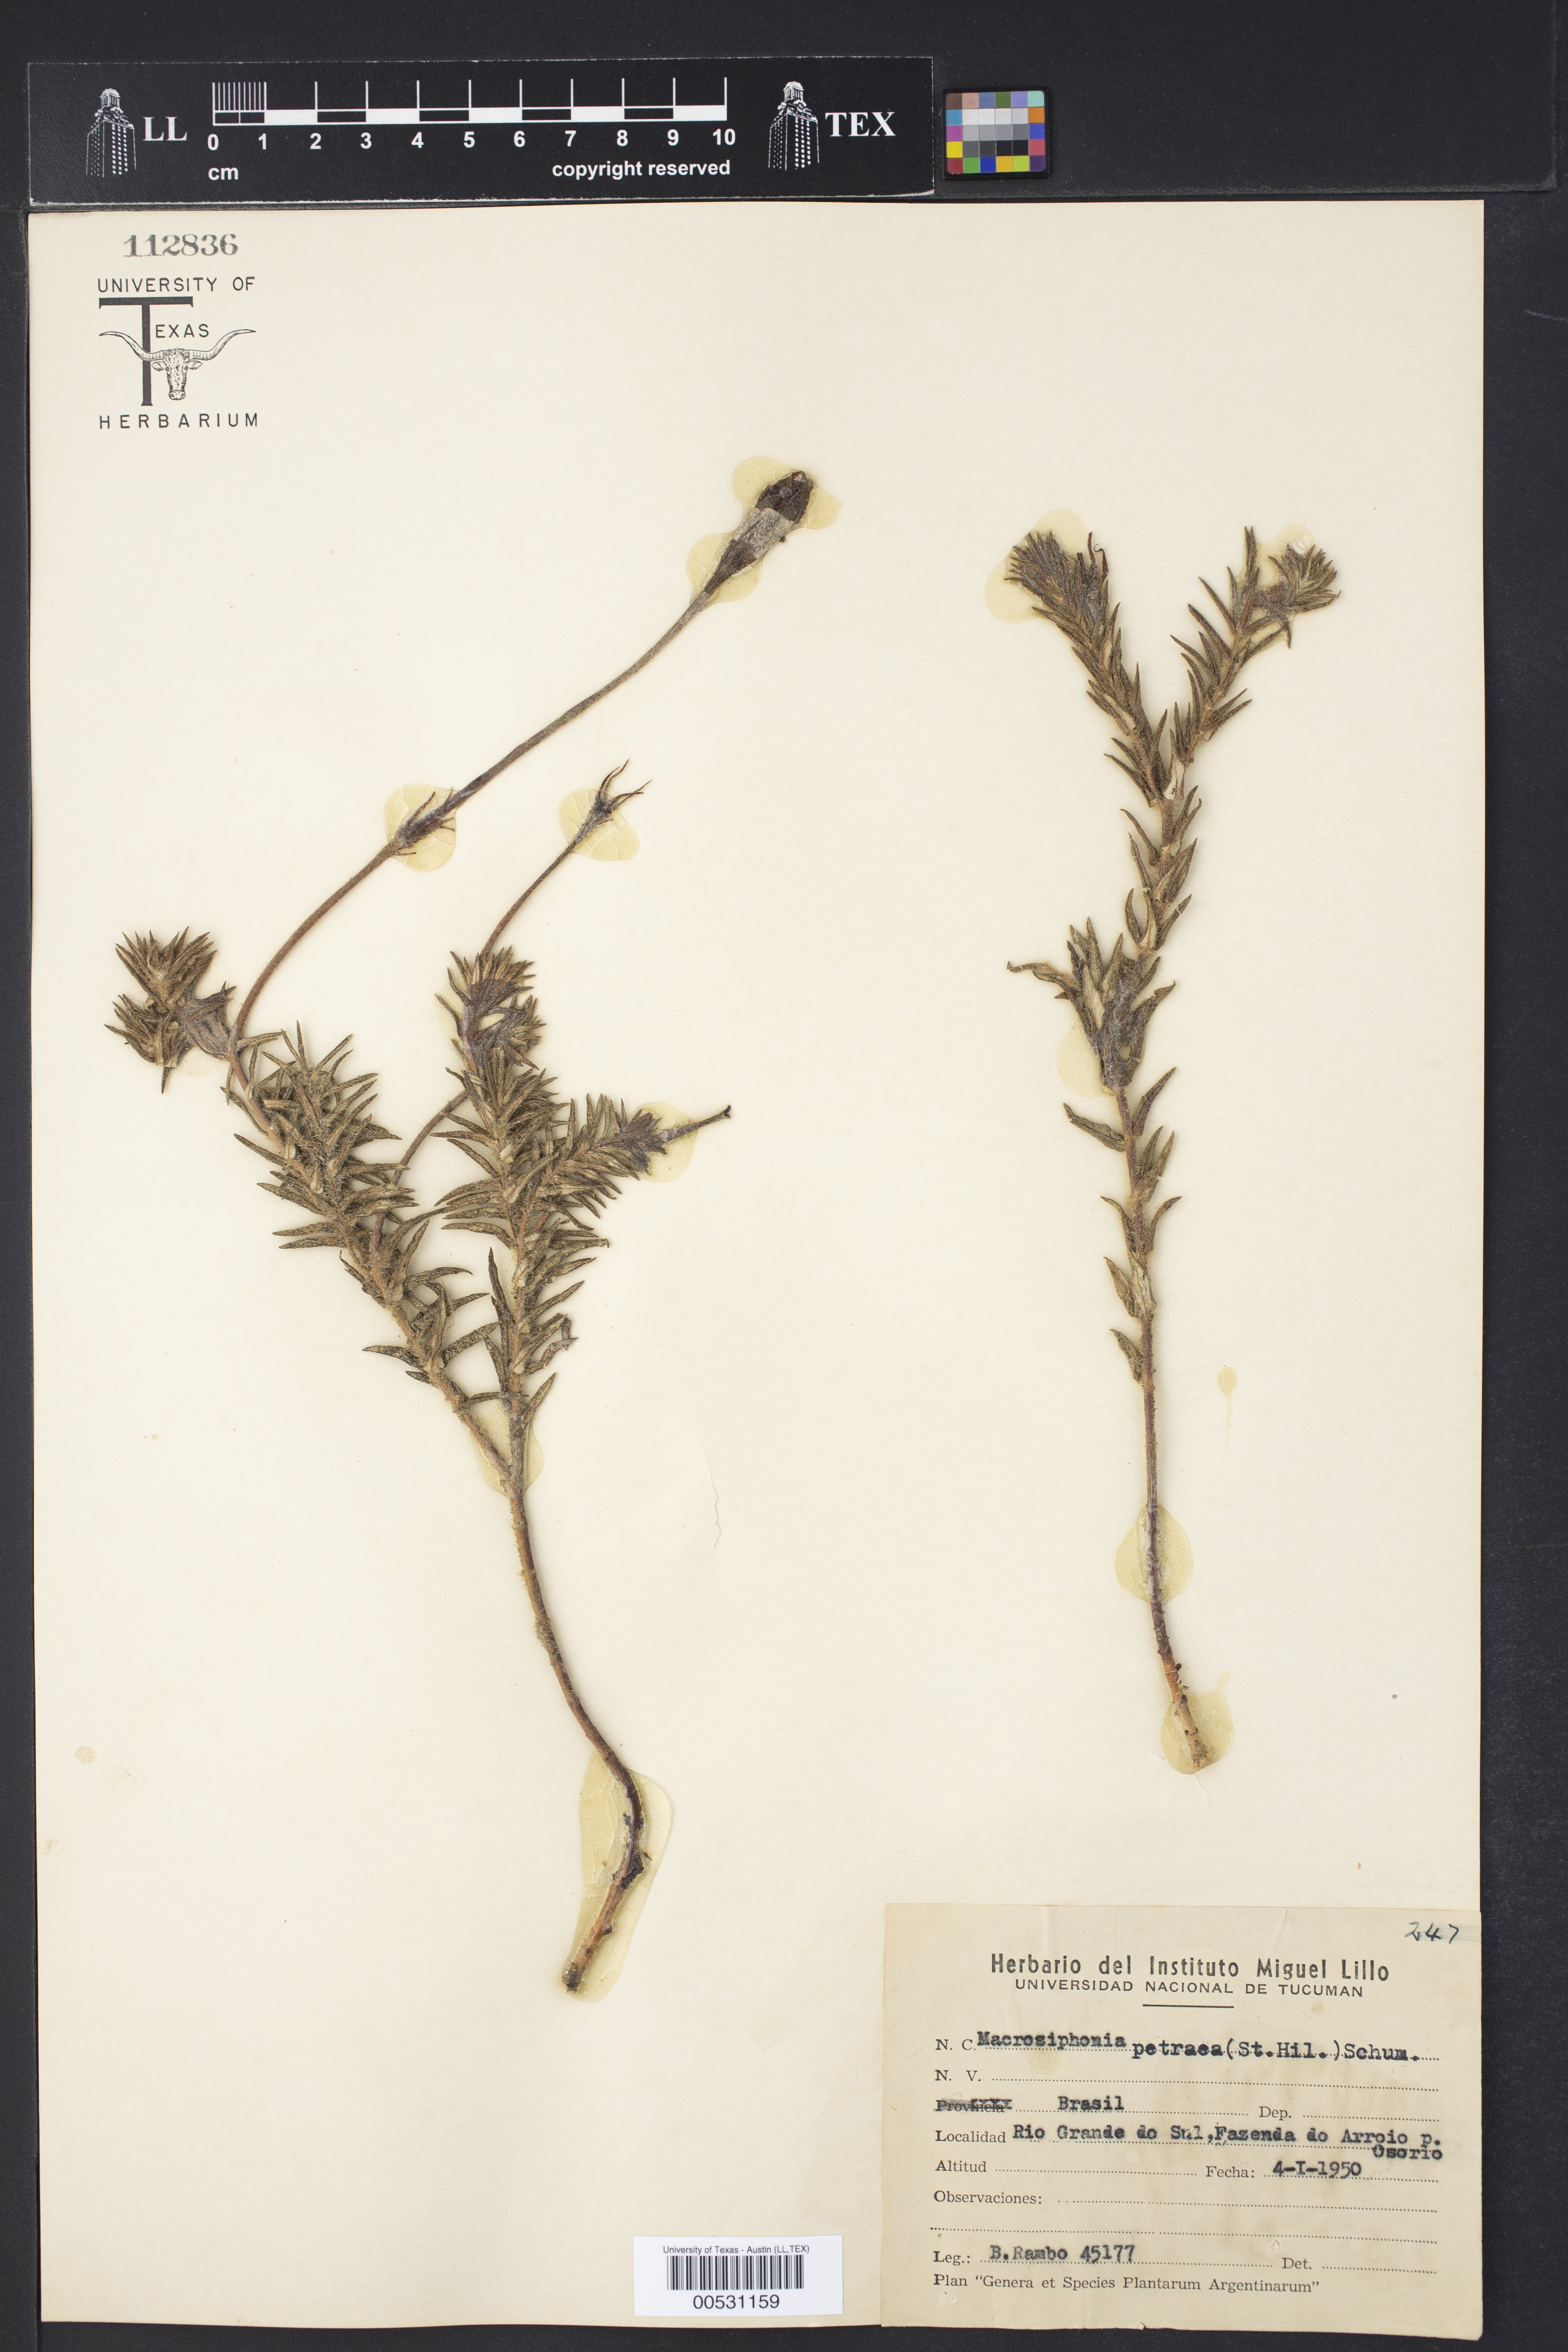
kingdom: Plantae
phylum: Tracheophyta
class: Magnoliopsida
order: Gentianales
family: Apocynaceae
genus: Mandevilla
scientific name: Mandevilla petraea
